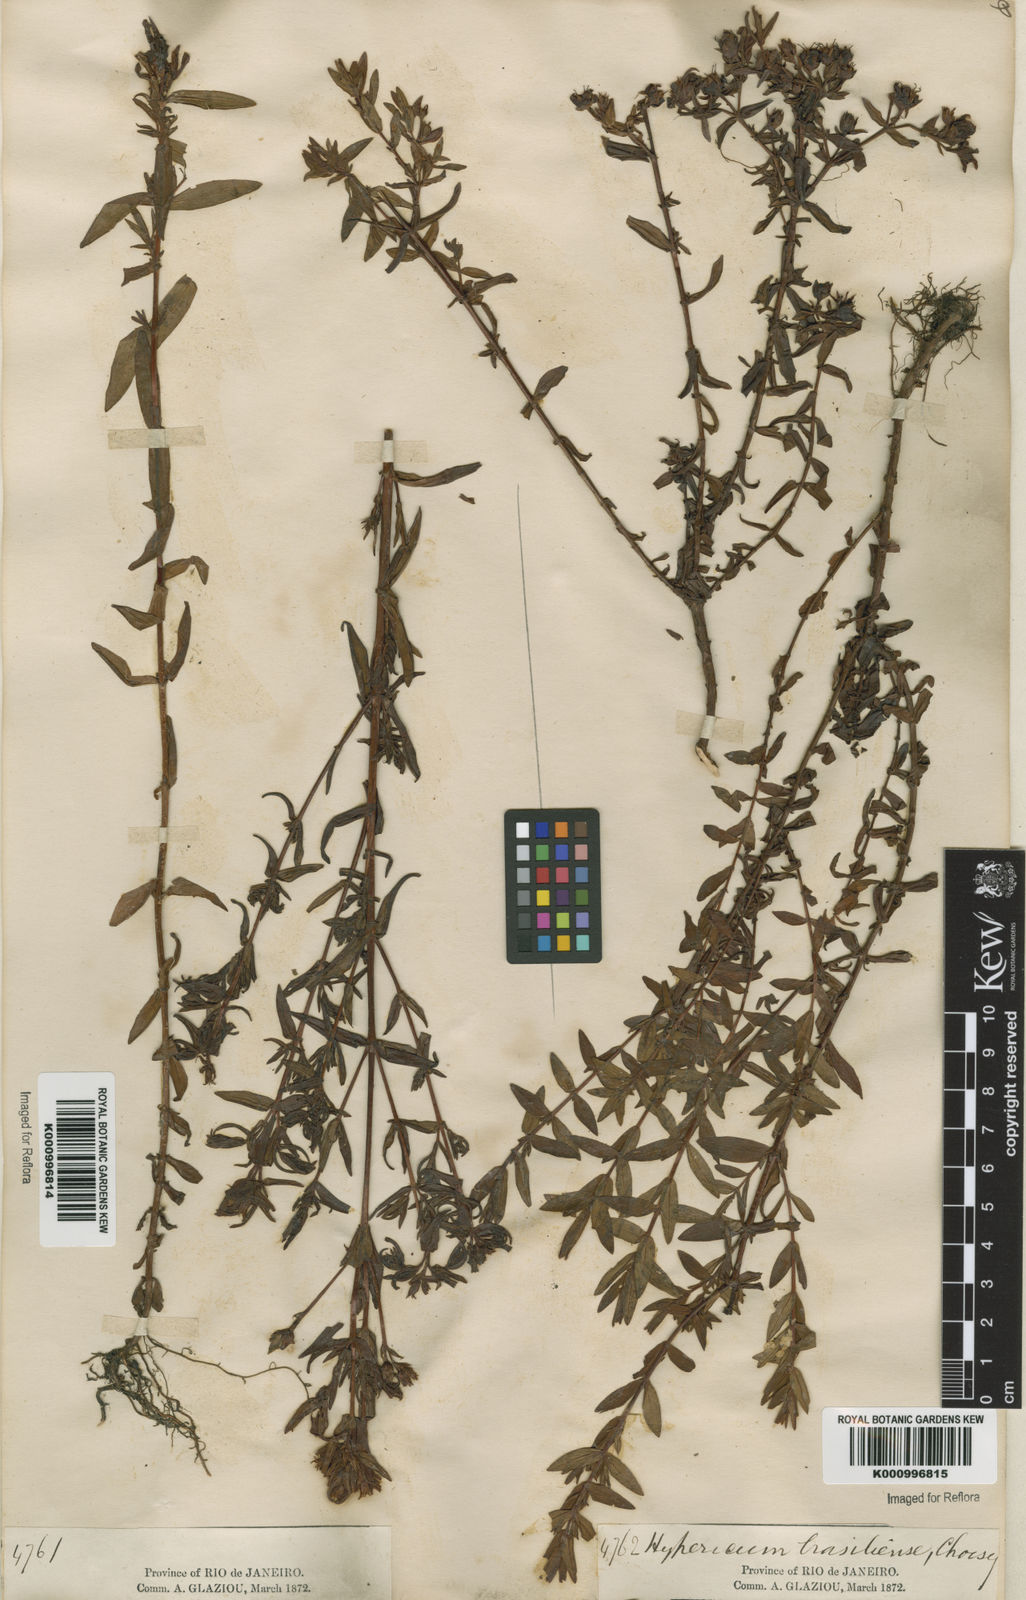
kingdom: Plantae
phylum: Tracheophyta
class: Magnoliopsida
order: Malpighiales
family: Hypericaceae
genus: Hypericum
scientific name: Hypericum brasiliense
